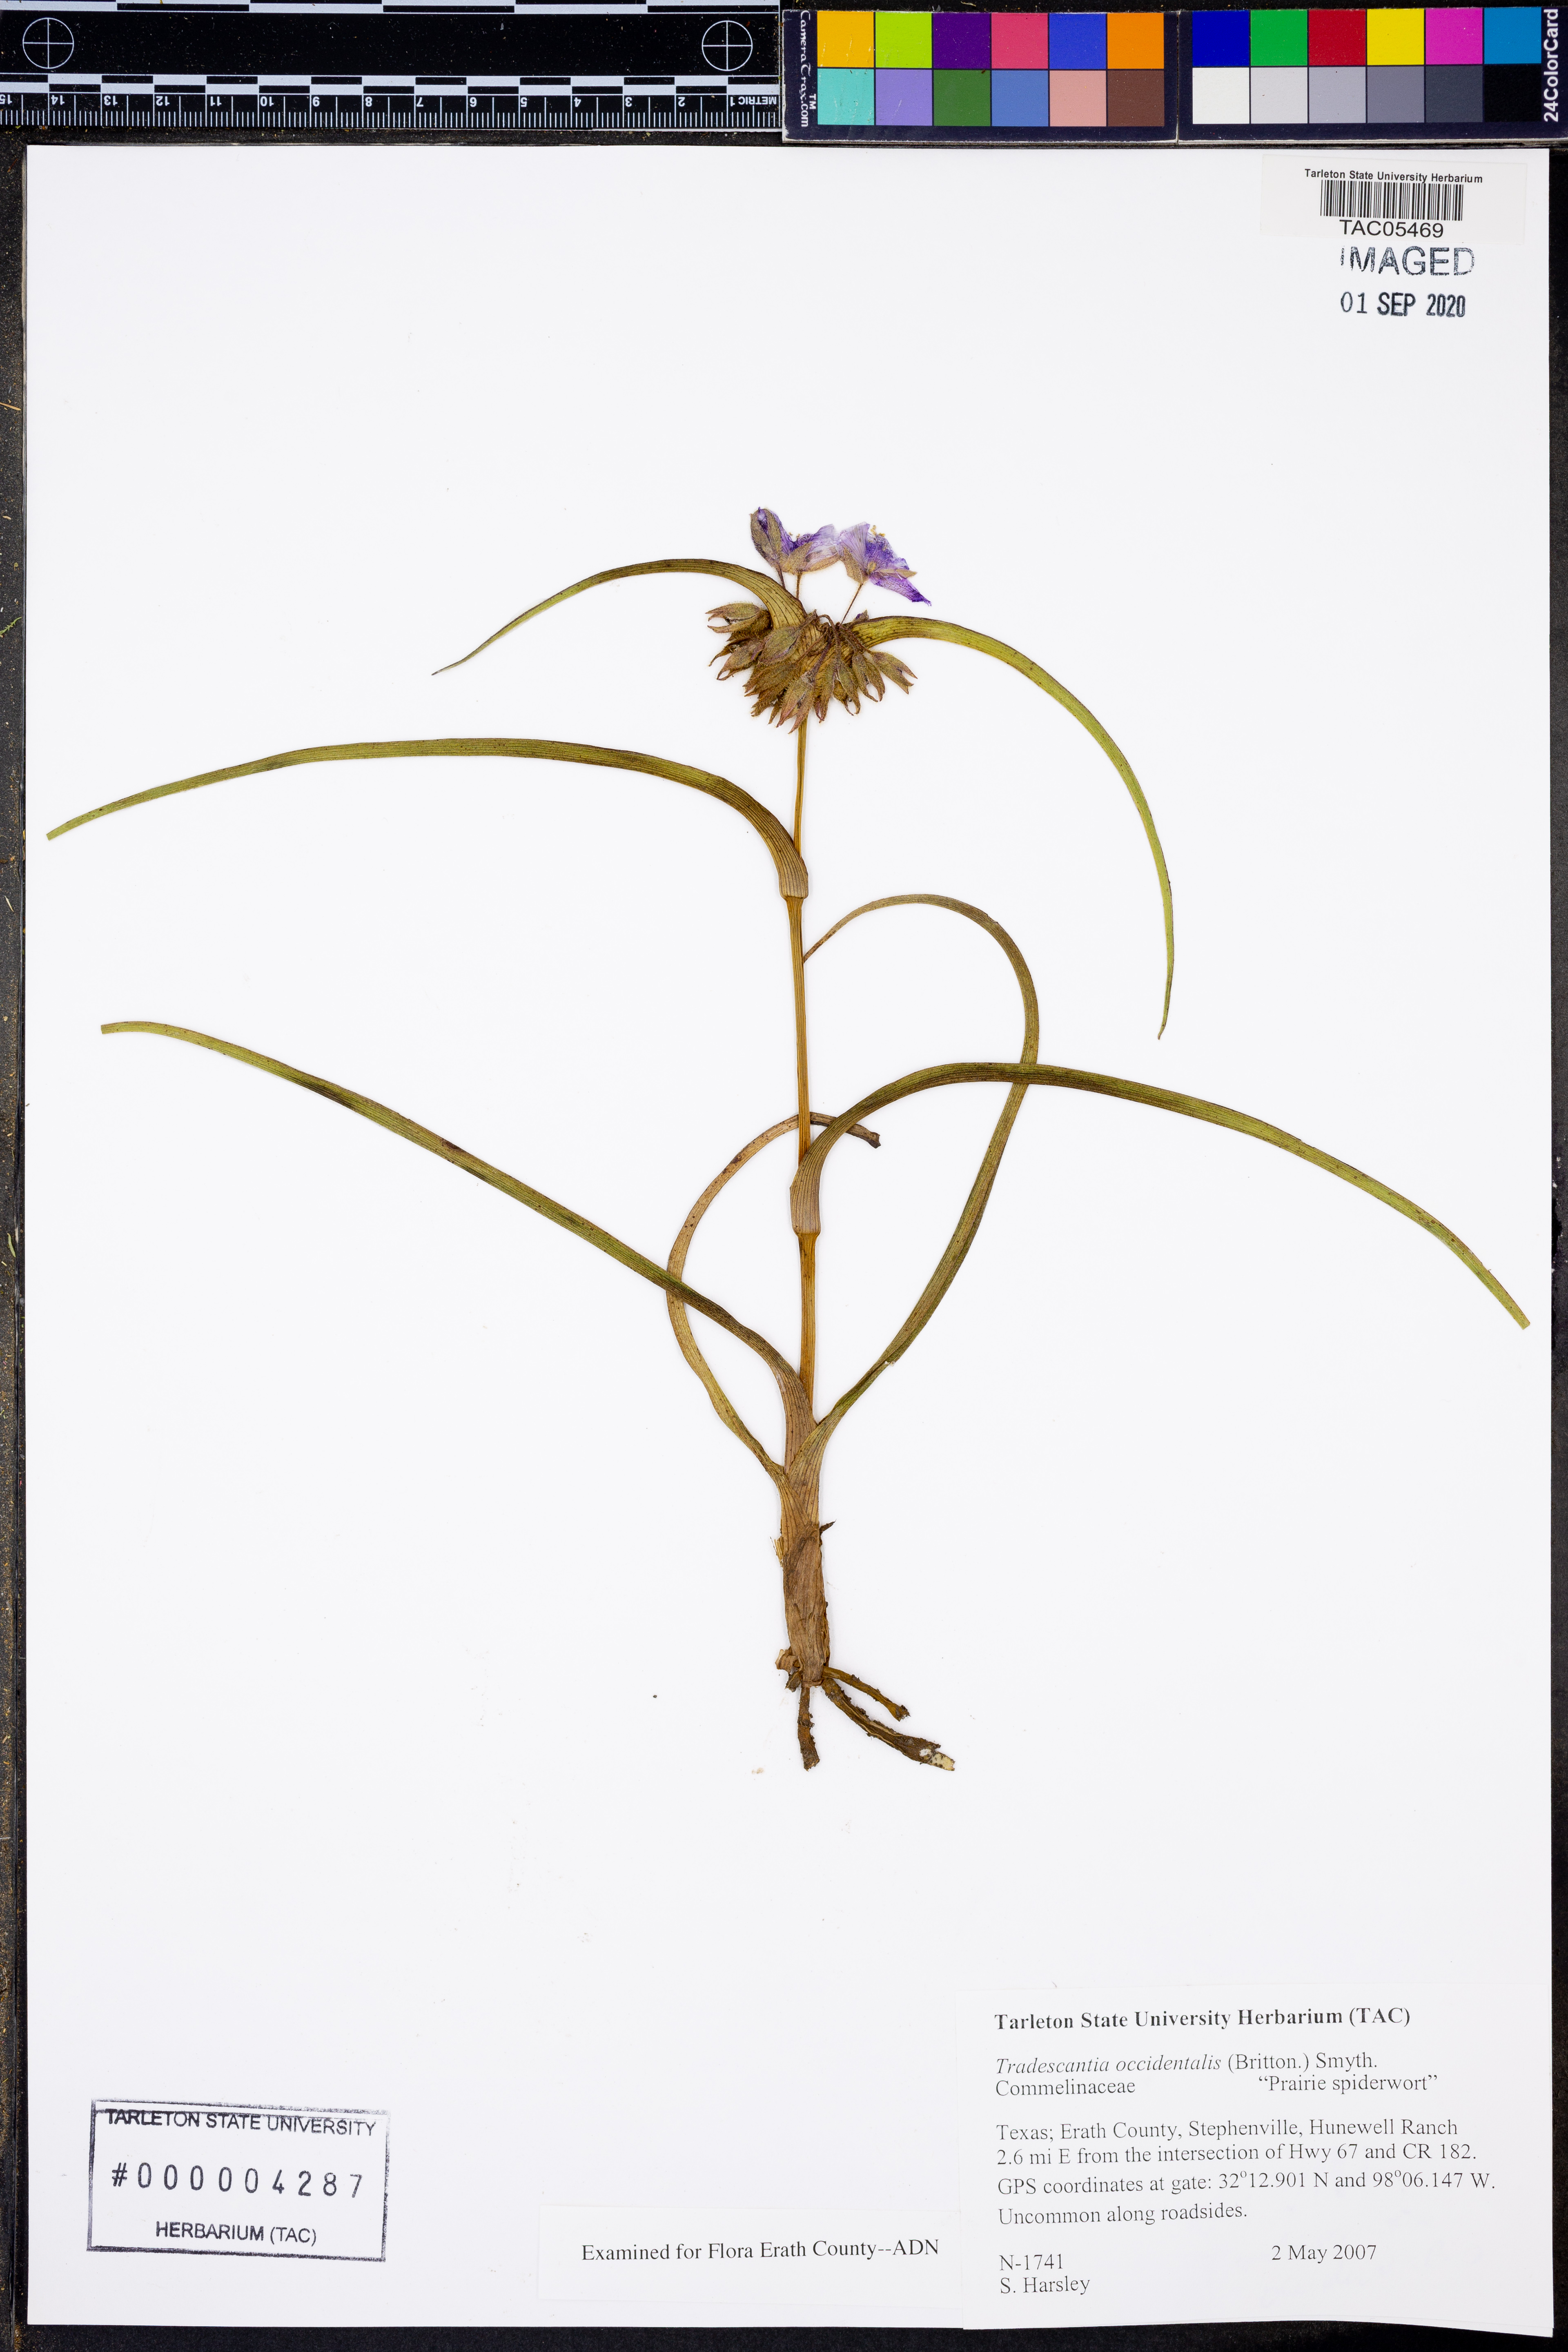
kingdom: Plantae
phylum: Tracheophyta
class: Liliopsida
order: Commelinales
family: Commelinaceae
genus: Tradescantia
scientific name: Tradescantia occidentalis
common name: Prairie spiderwort
